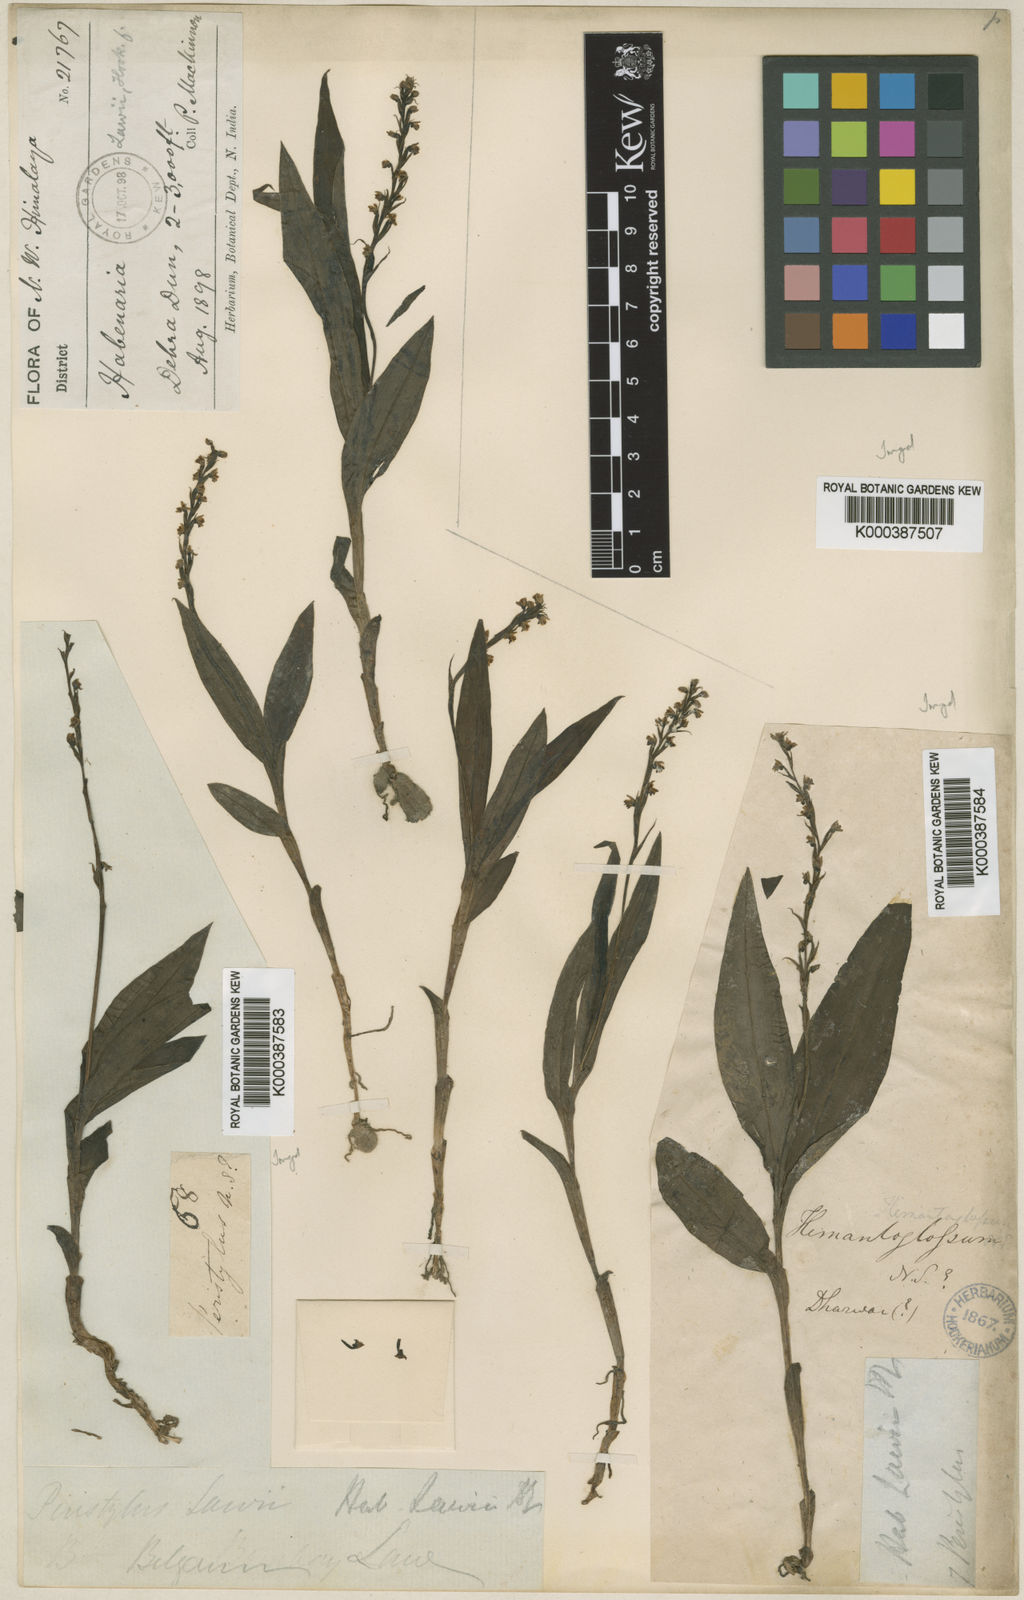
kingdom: Plantae
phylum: Tracheophyta
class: Liliopsida
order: Asparagales
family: Orchidaceae
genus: Peristylus
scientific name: Peristylus lawii
